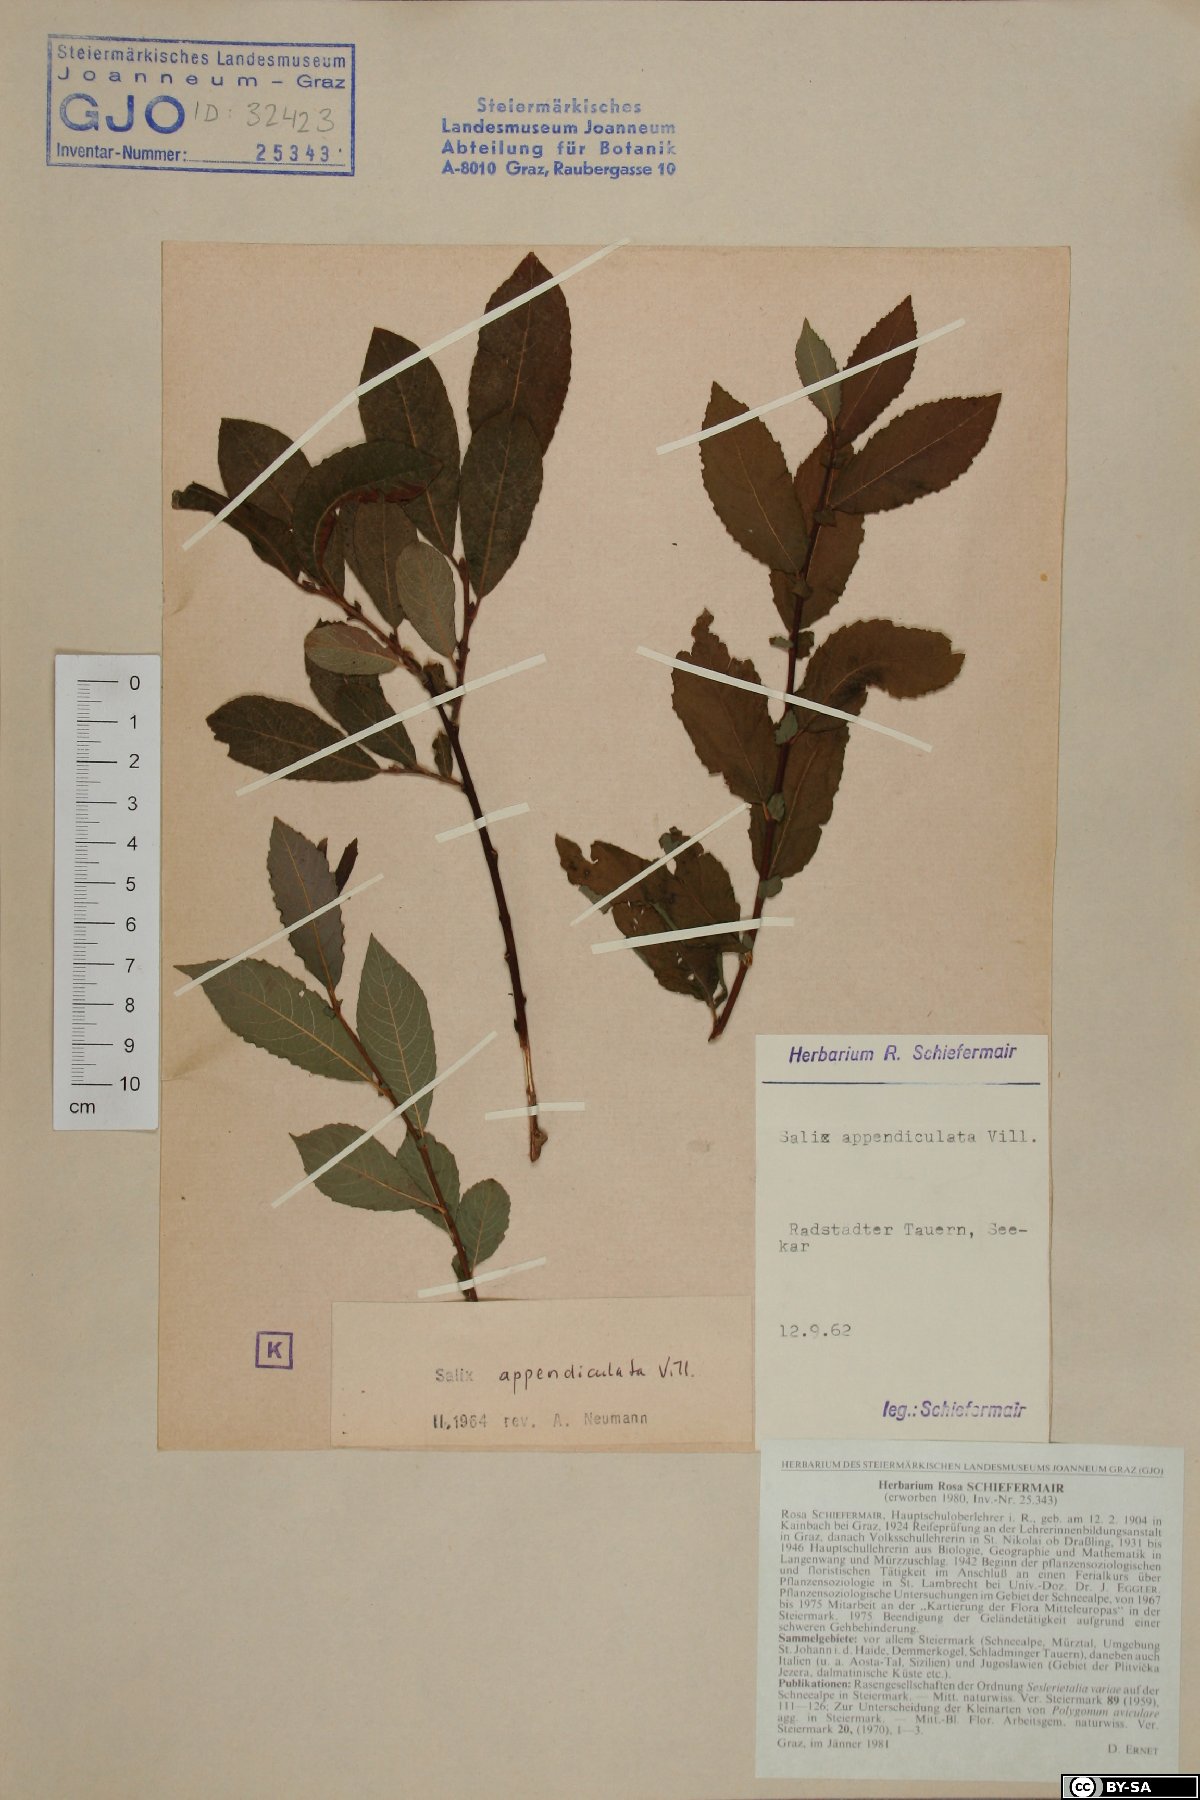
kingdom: Plantae
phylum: Tracheophyta
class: Magnoliopsida
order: Malpighiales
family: Salicaceae
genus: Salix
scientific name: Salix appendiculata
